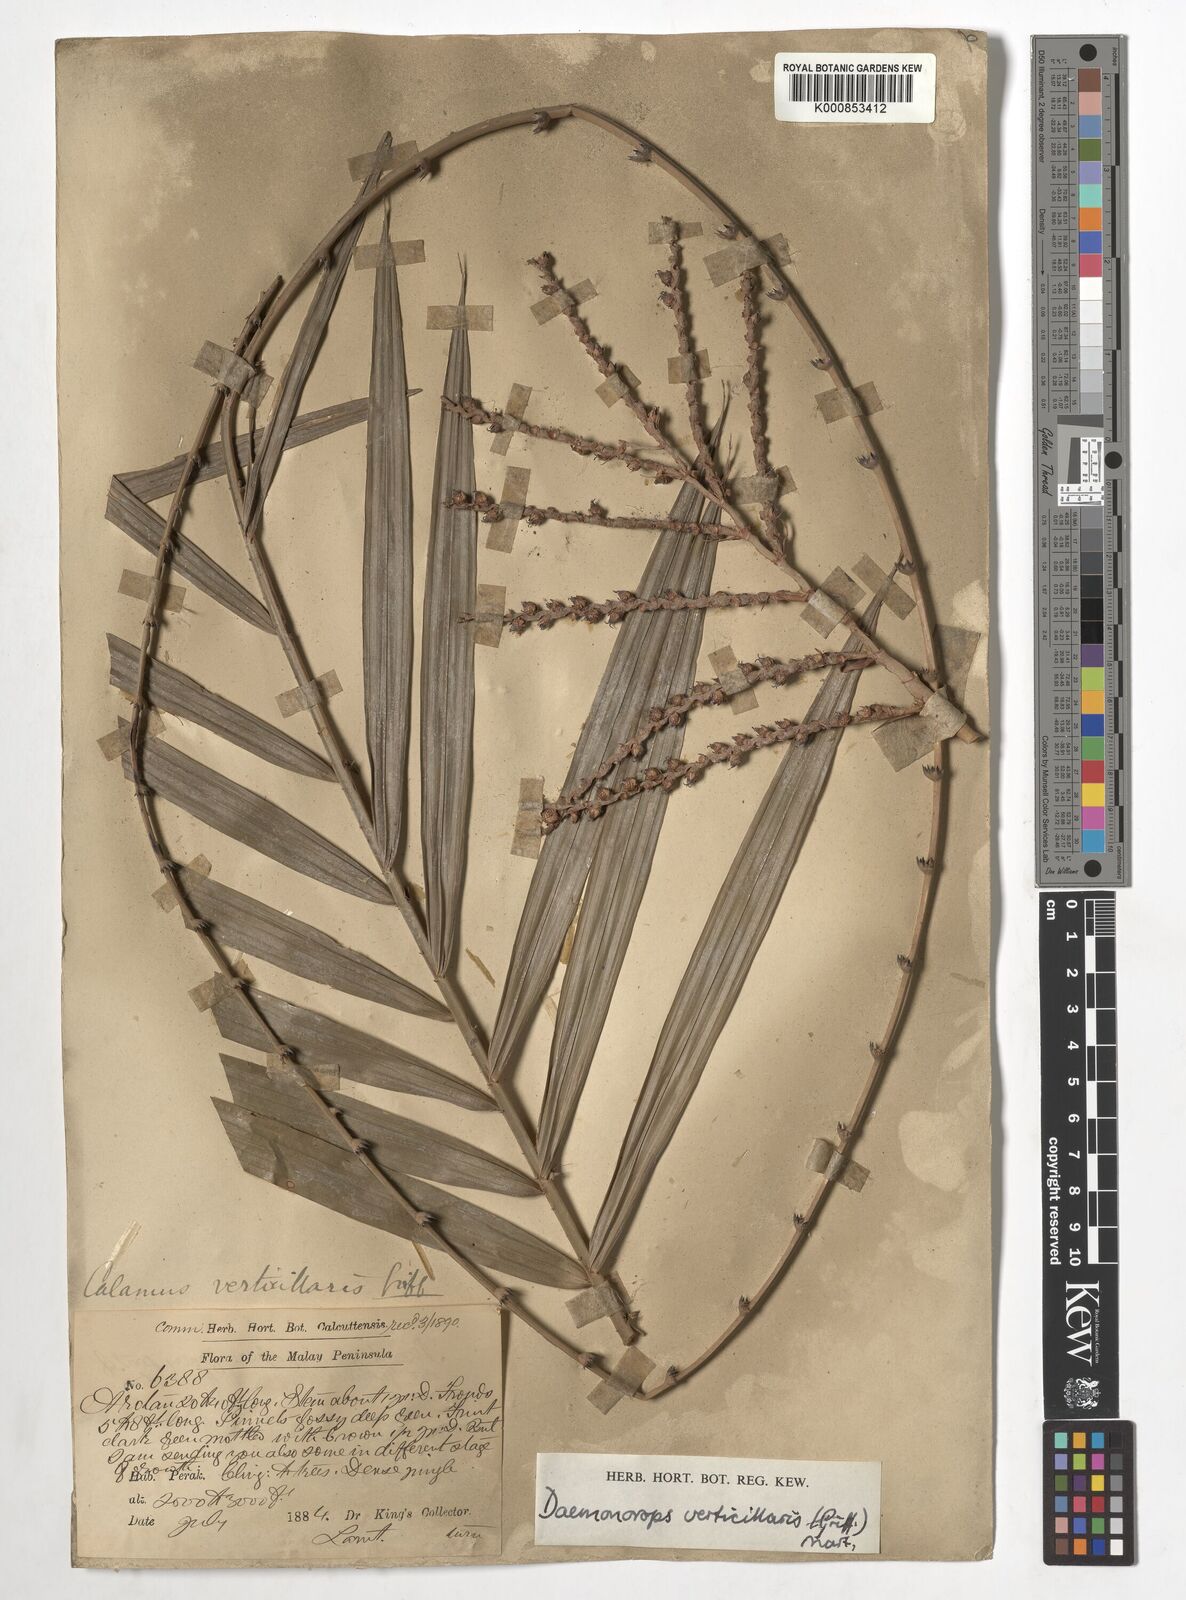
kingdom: Plantae
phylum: Tracheophyta
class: Liliopsida
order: Arecales
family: Arecaceae
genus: Calamus
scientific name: Calamus verticillaris
